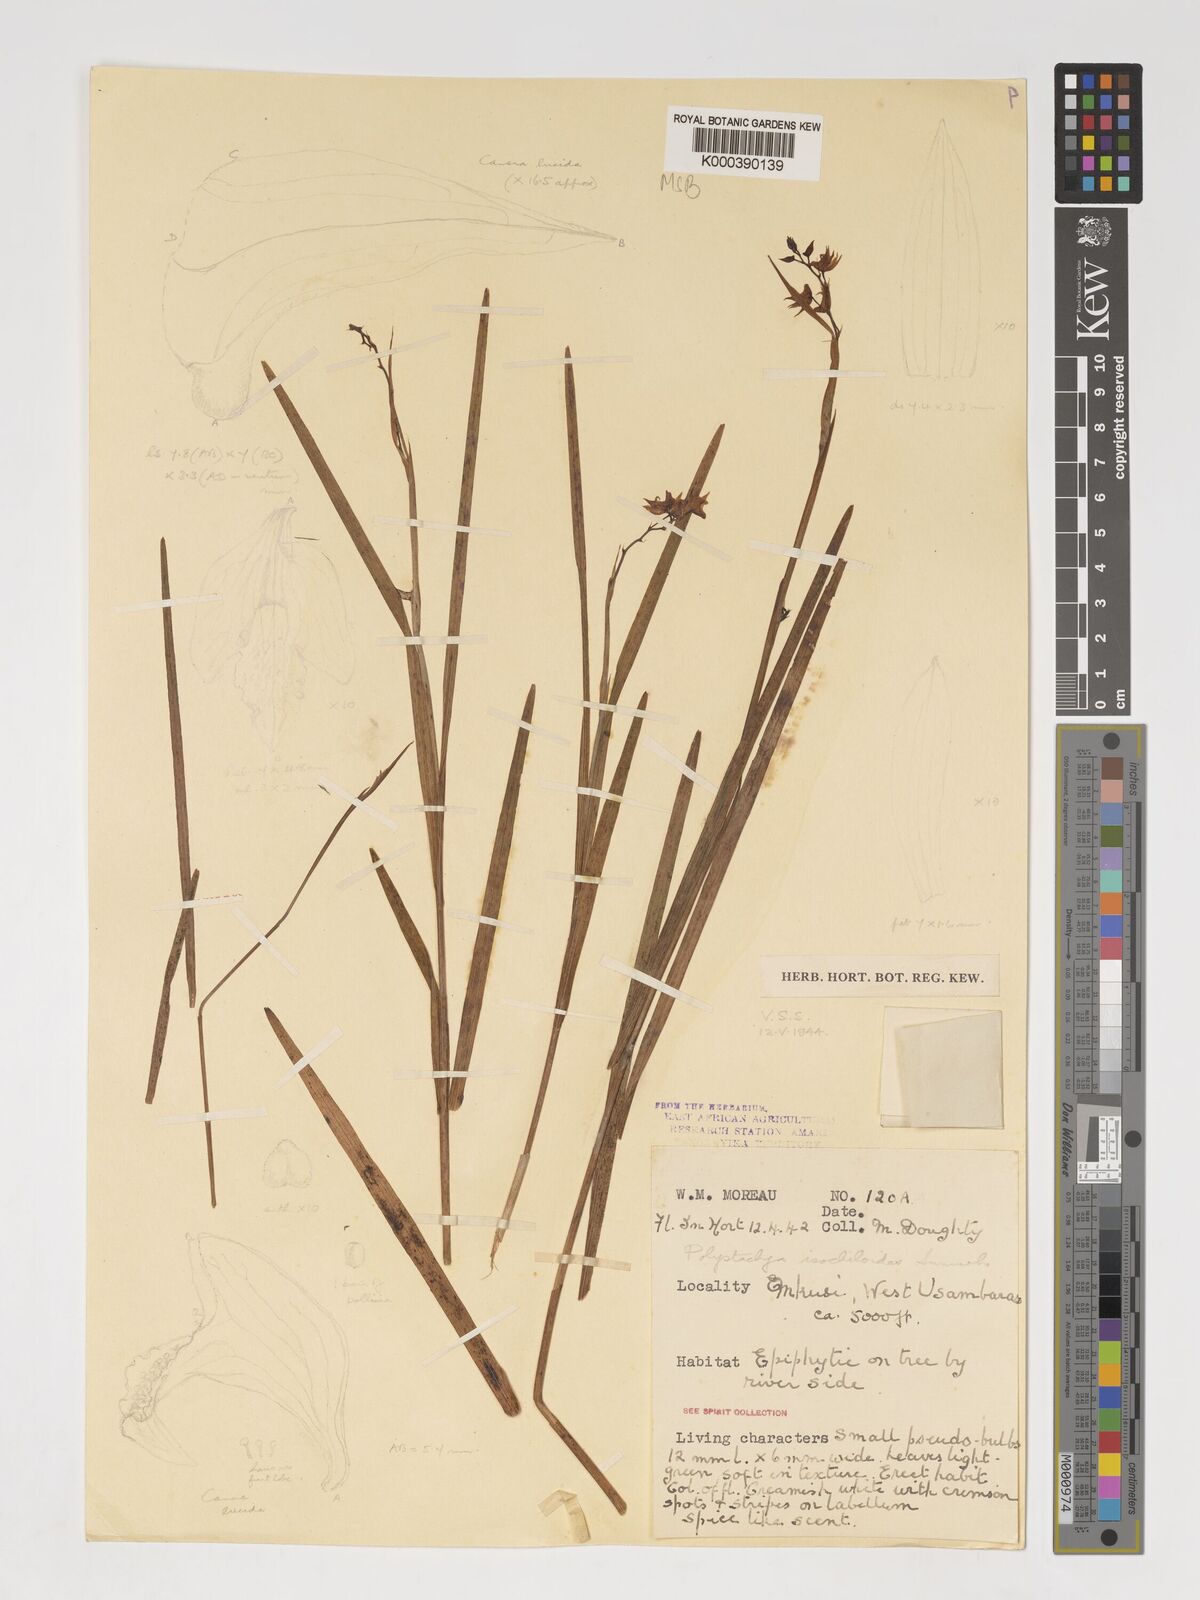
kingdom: Plantae
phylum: Tracheophyta
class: Liliopsida
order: Asparagales
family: Orchidaceae
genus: Polystachya
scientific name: Polystachya isochiloides
